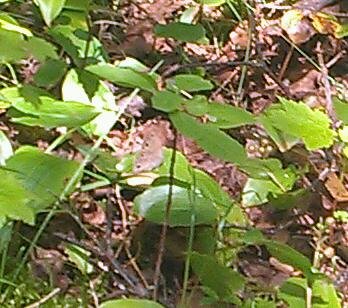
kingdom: Animalia
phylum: Arthropoda
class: Insecta
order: Lepidoptera
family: Nymphalidae
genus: Euptychia
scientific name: Euptychia cymela
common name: Little Wood Satyr
